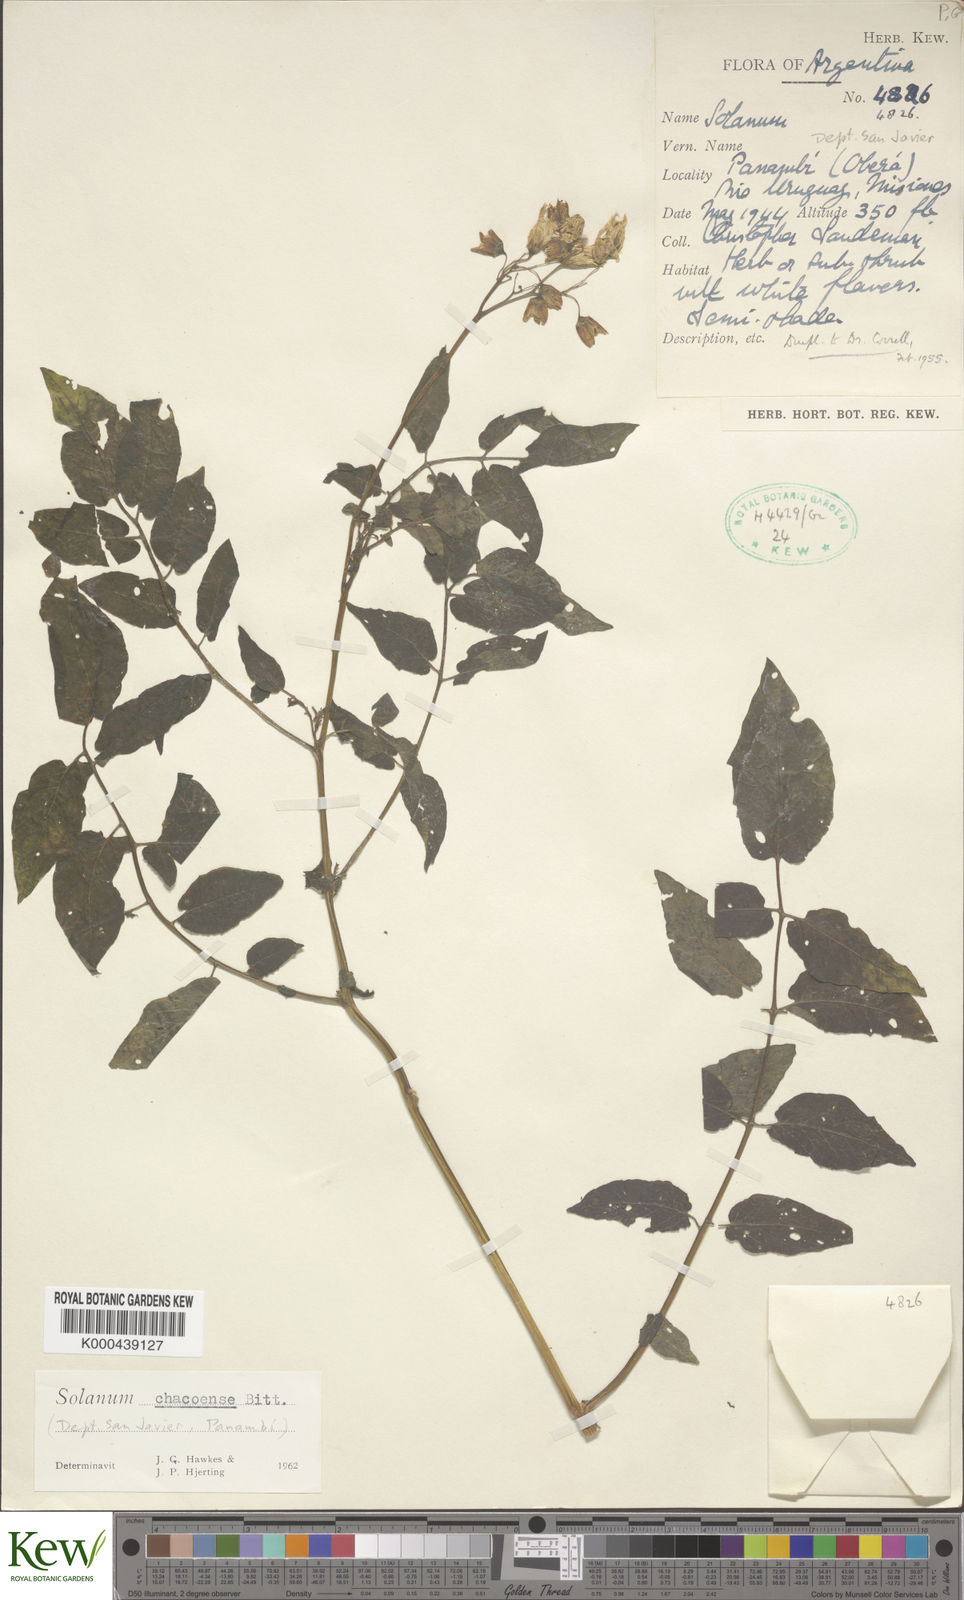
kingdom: Plantae
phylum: Tracheophyta
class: Magnoliopsida
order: Solanales
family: Solanaceae
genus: Solanum
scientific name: Solanum chacoense
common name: Chaco potato
